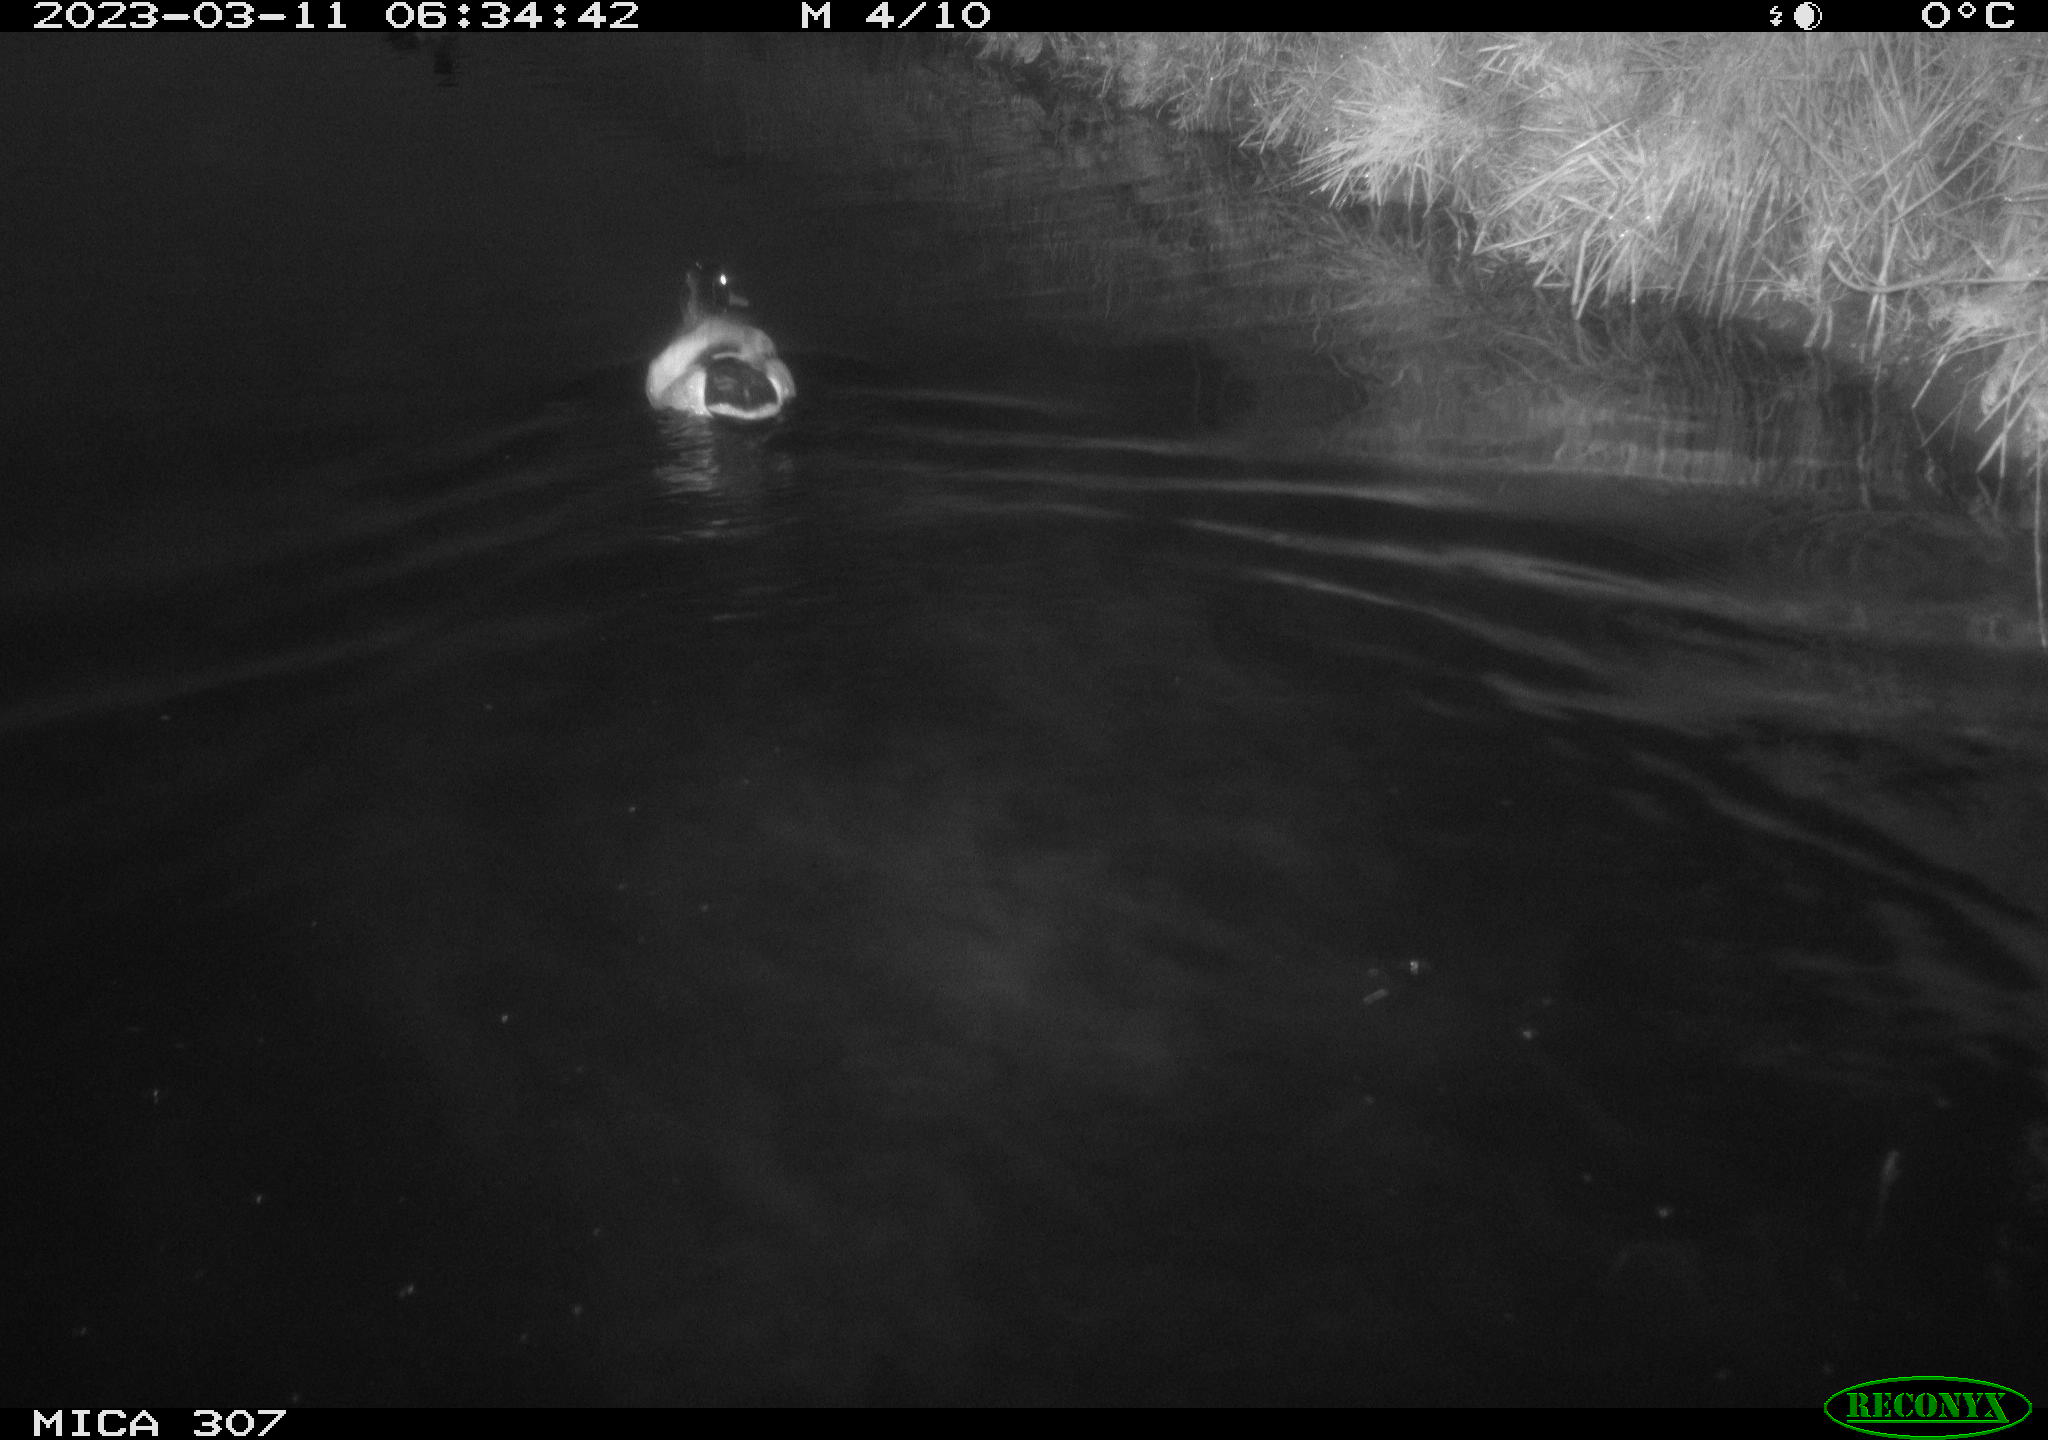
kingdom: Animalia
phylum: Chordata
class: Aves
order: Anseriformes
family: Anatidae
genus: Anas
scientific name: Anas
